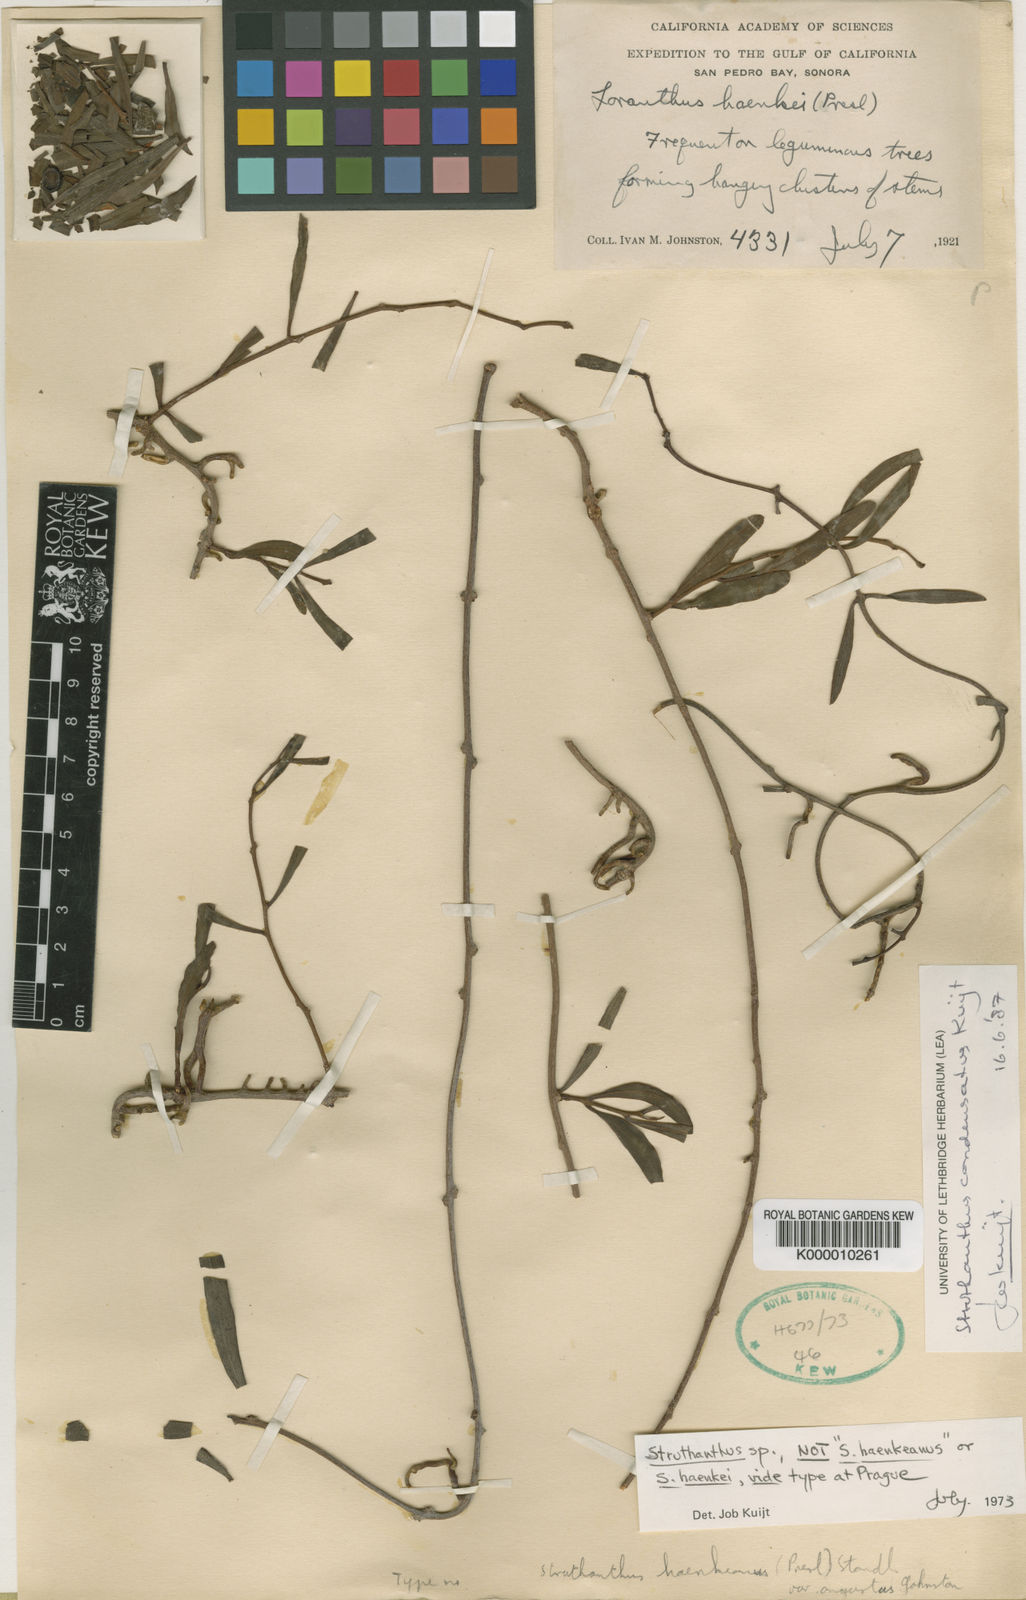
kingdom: Plantae
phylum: Tracheophyta
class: Magnoliopsida
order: Santalales
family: Loranthaceae
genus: Struthanthus
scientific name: Struthanthus
